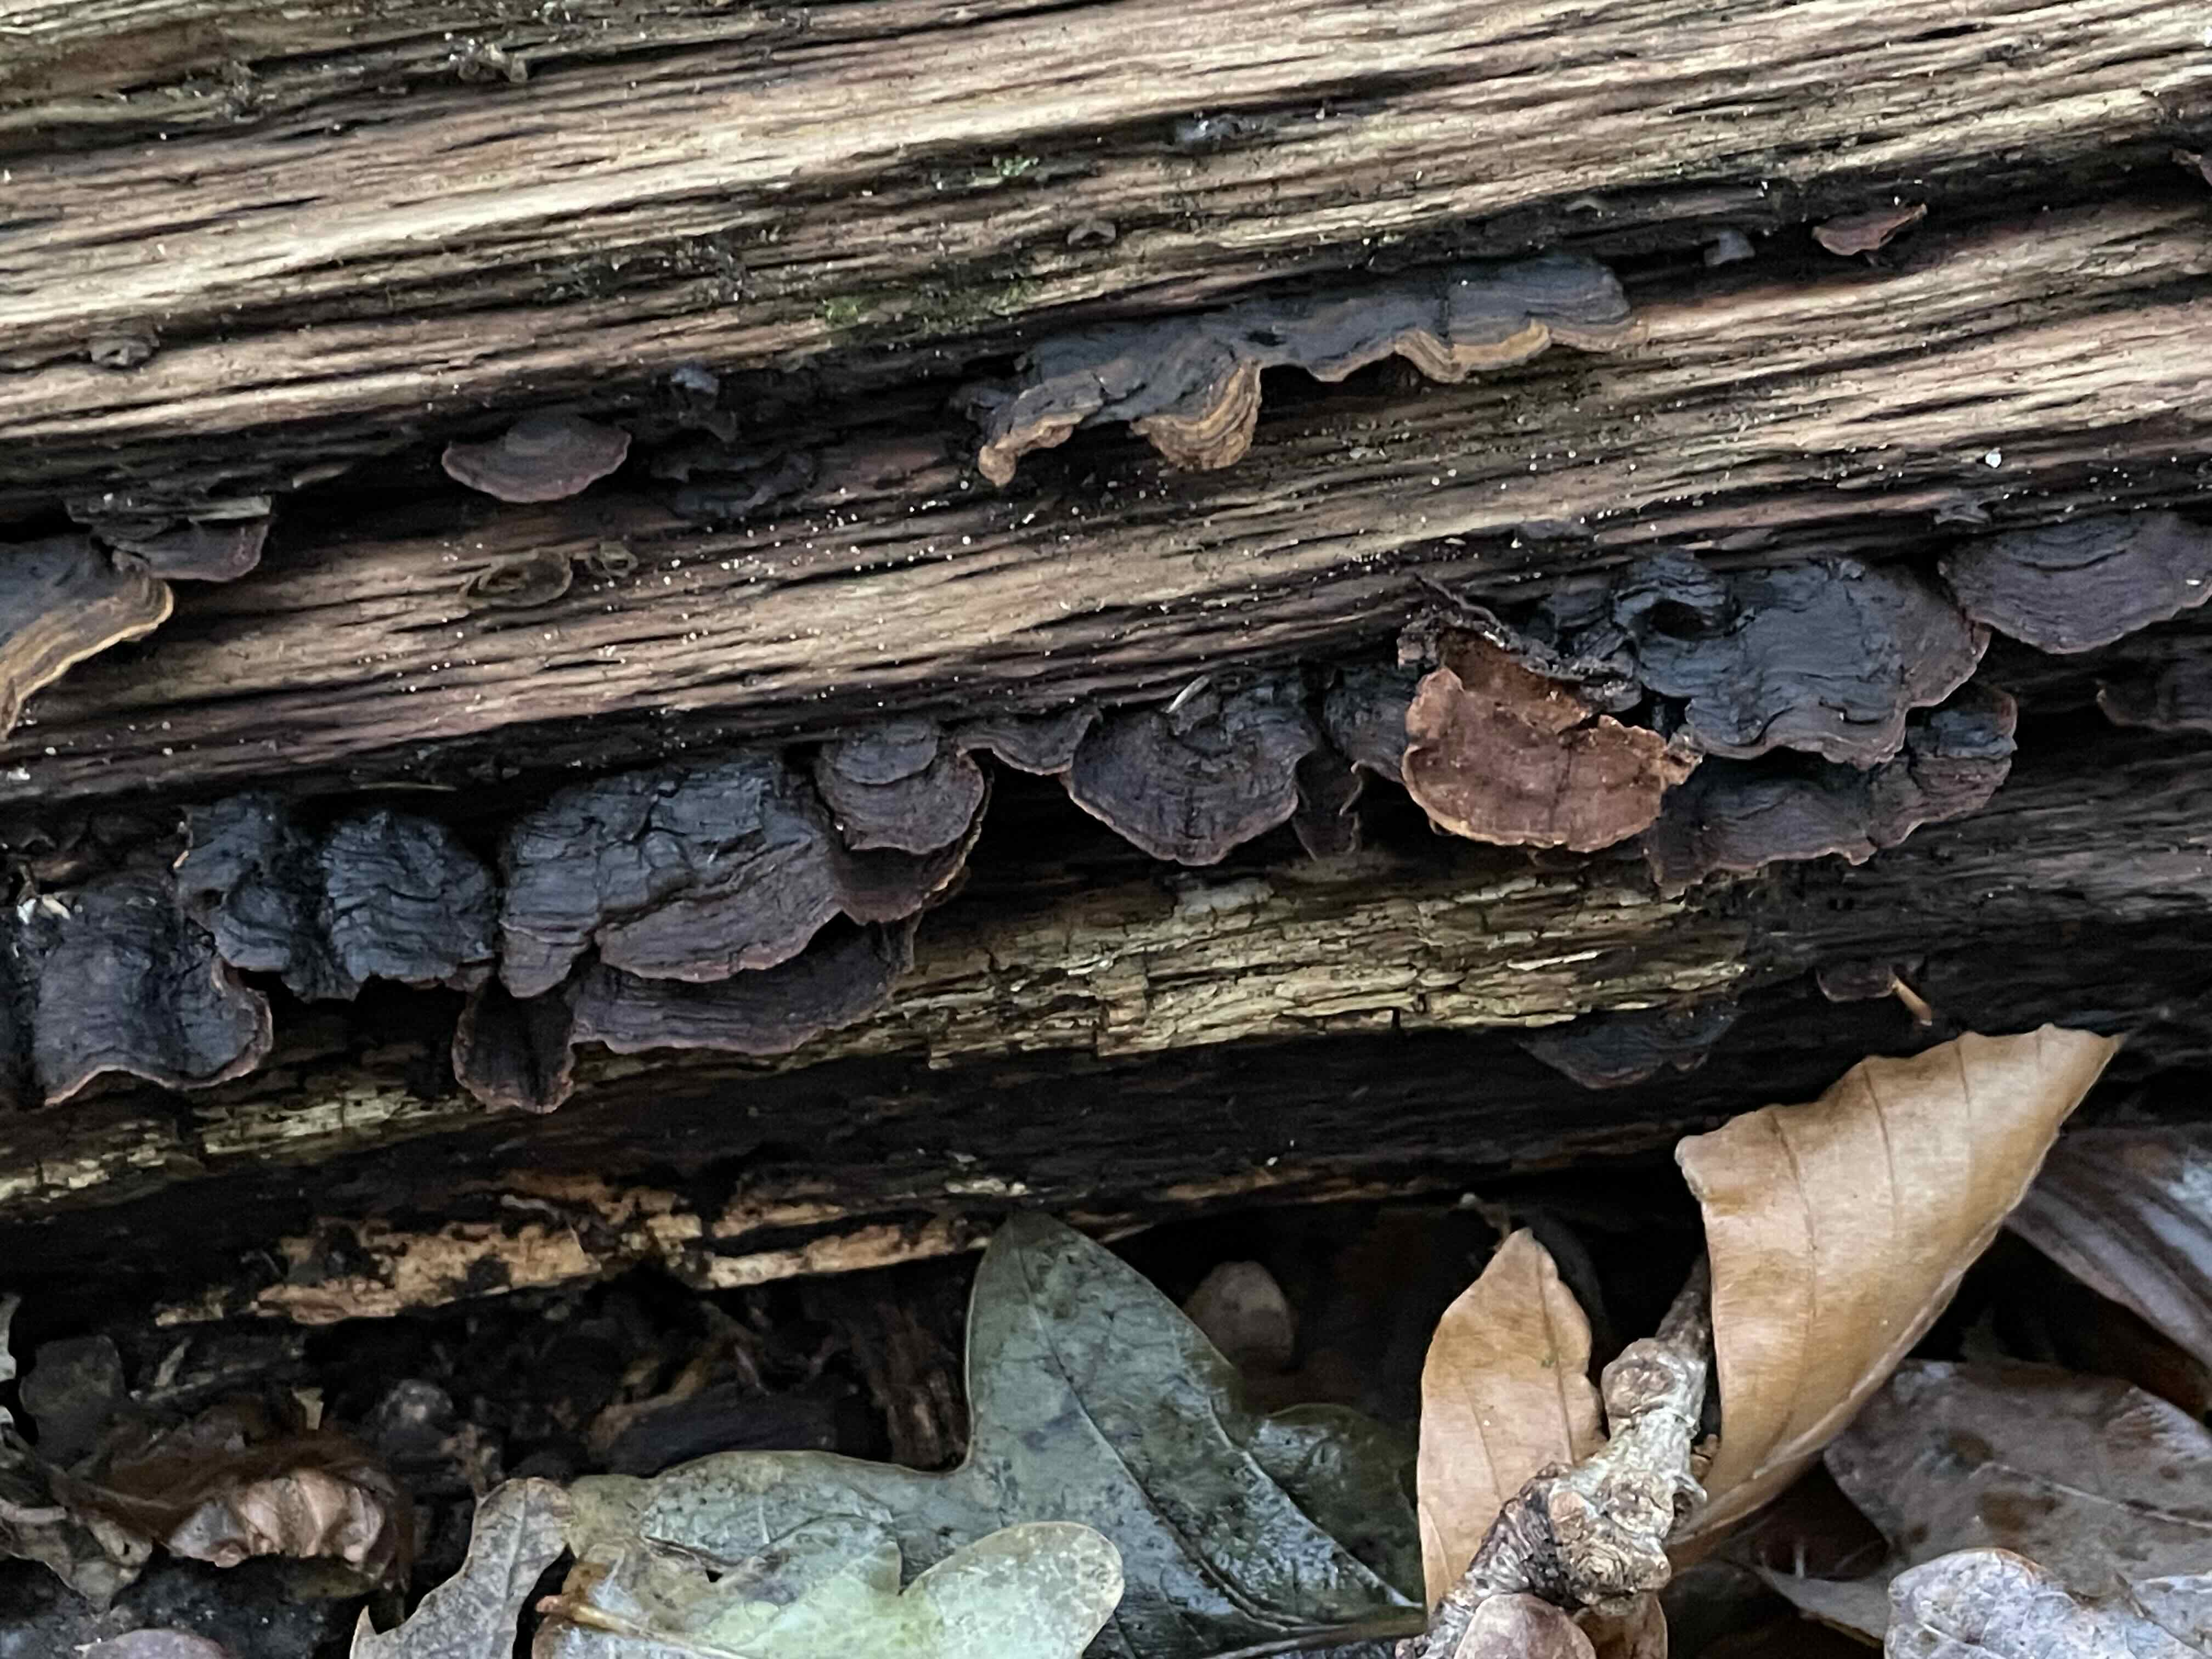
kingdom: Fungi
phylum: Basidiomycota
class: Agaricomycetes
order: Hymenochaetales
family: Hymenochaetaceae
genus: Hymenochaete
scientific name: Hymenochaete rubiginosa
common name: stiv ruslædersvamp
